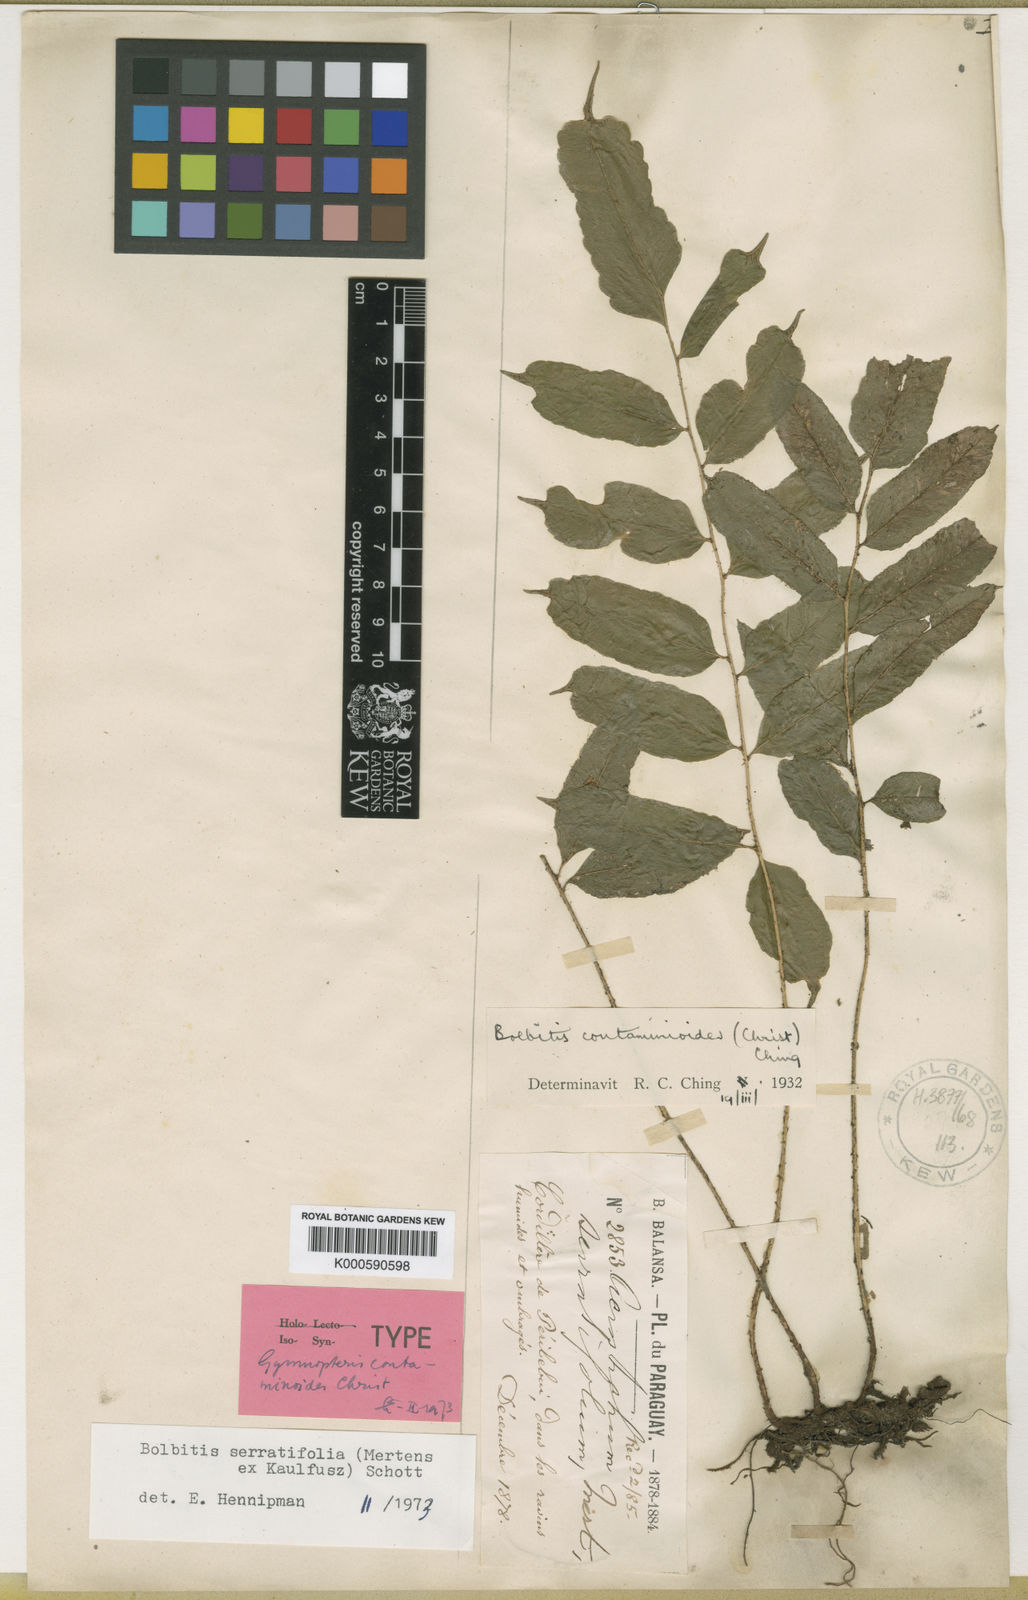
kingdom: Plantae
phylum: Tracheophyta
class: Polypodiopsida
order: Polypodiales
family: Dryopteridaceae
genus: Bolbitis
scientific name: Bolbitis serratifolia
